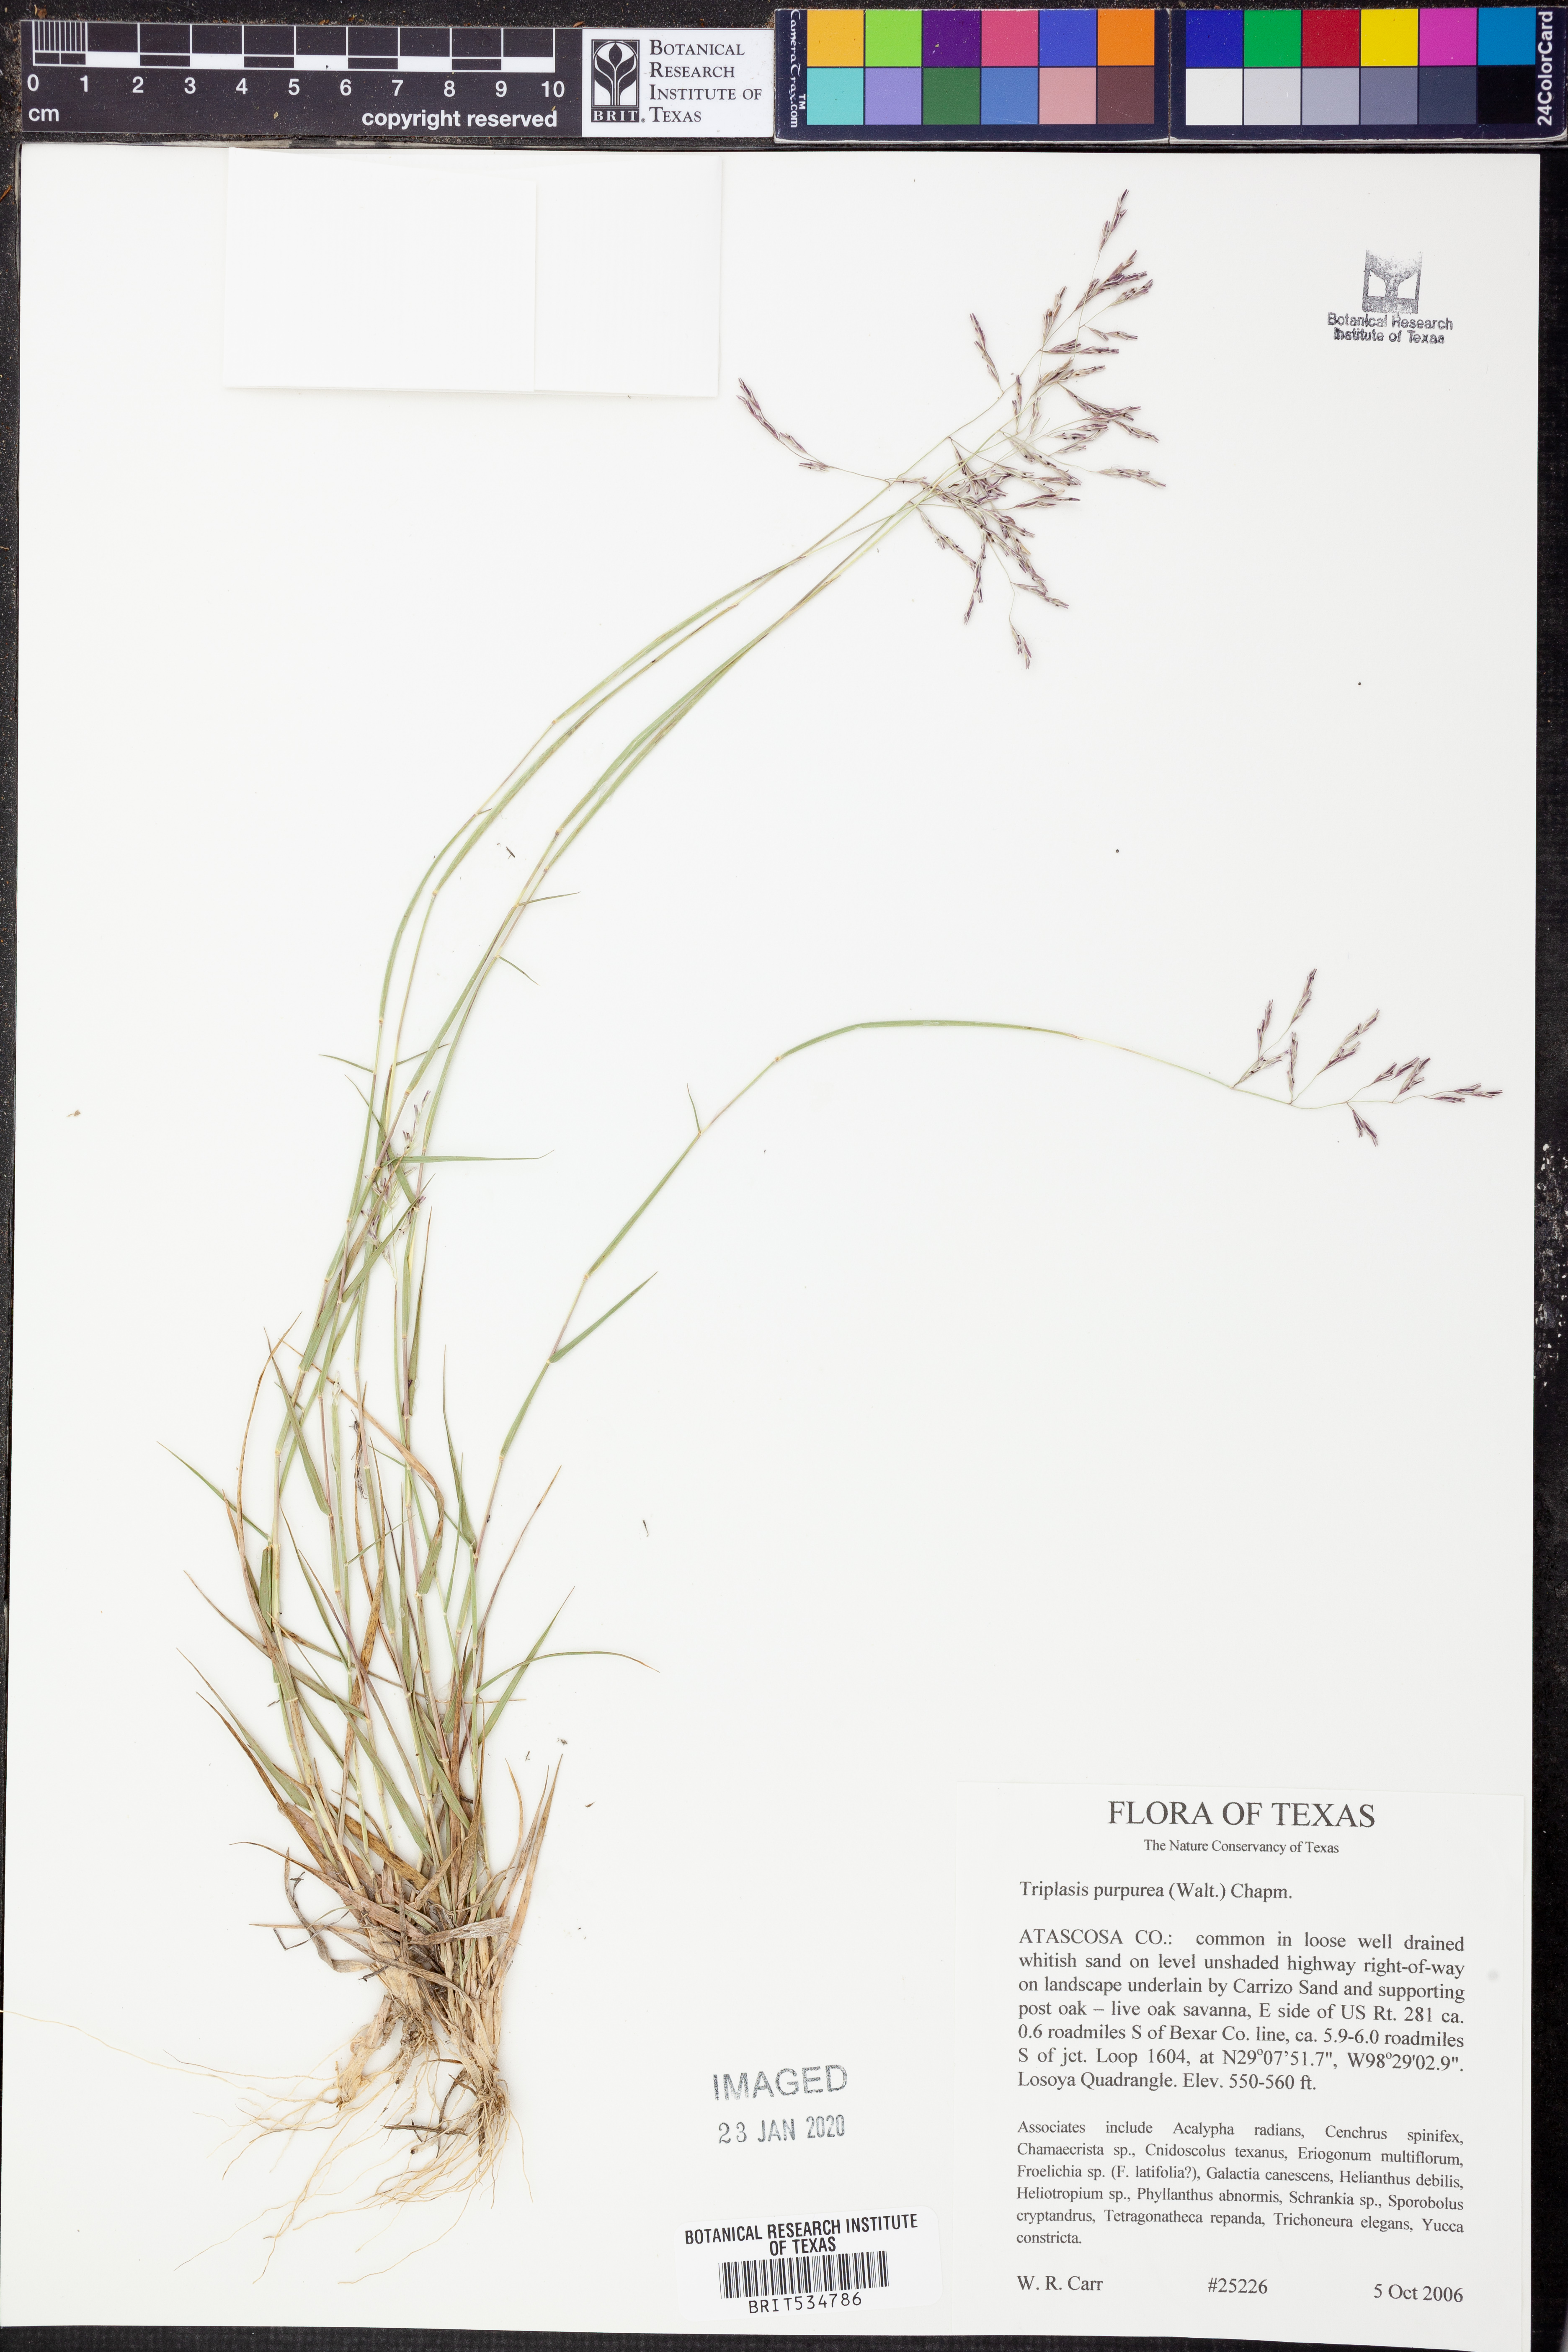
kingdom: Plantae
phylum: Tracheophyta
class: Liliopsida
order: Poales
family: Poaceae
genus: Triplasis
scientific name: Triplasis purpurea
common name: Purple sand grass
